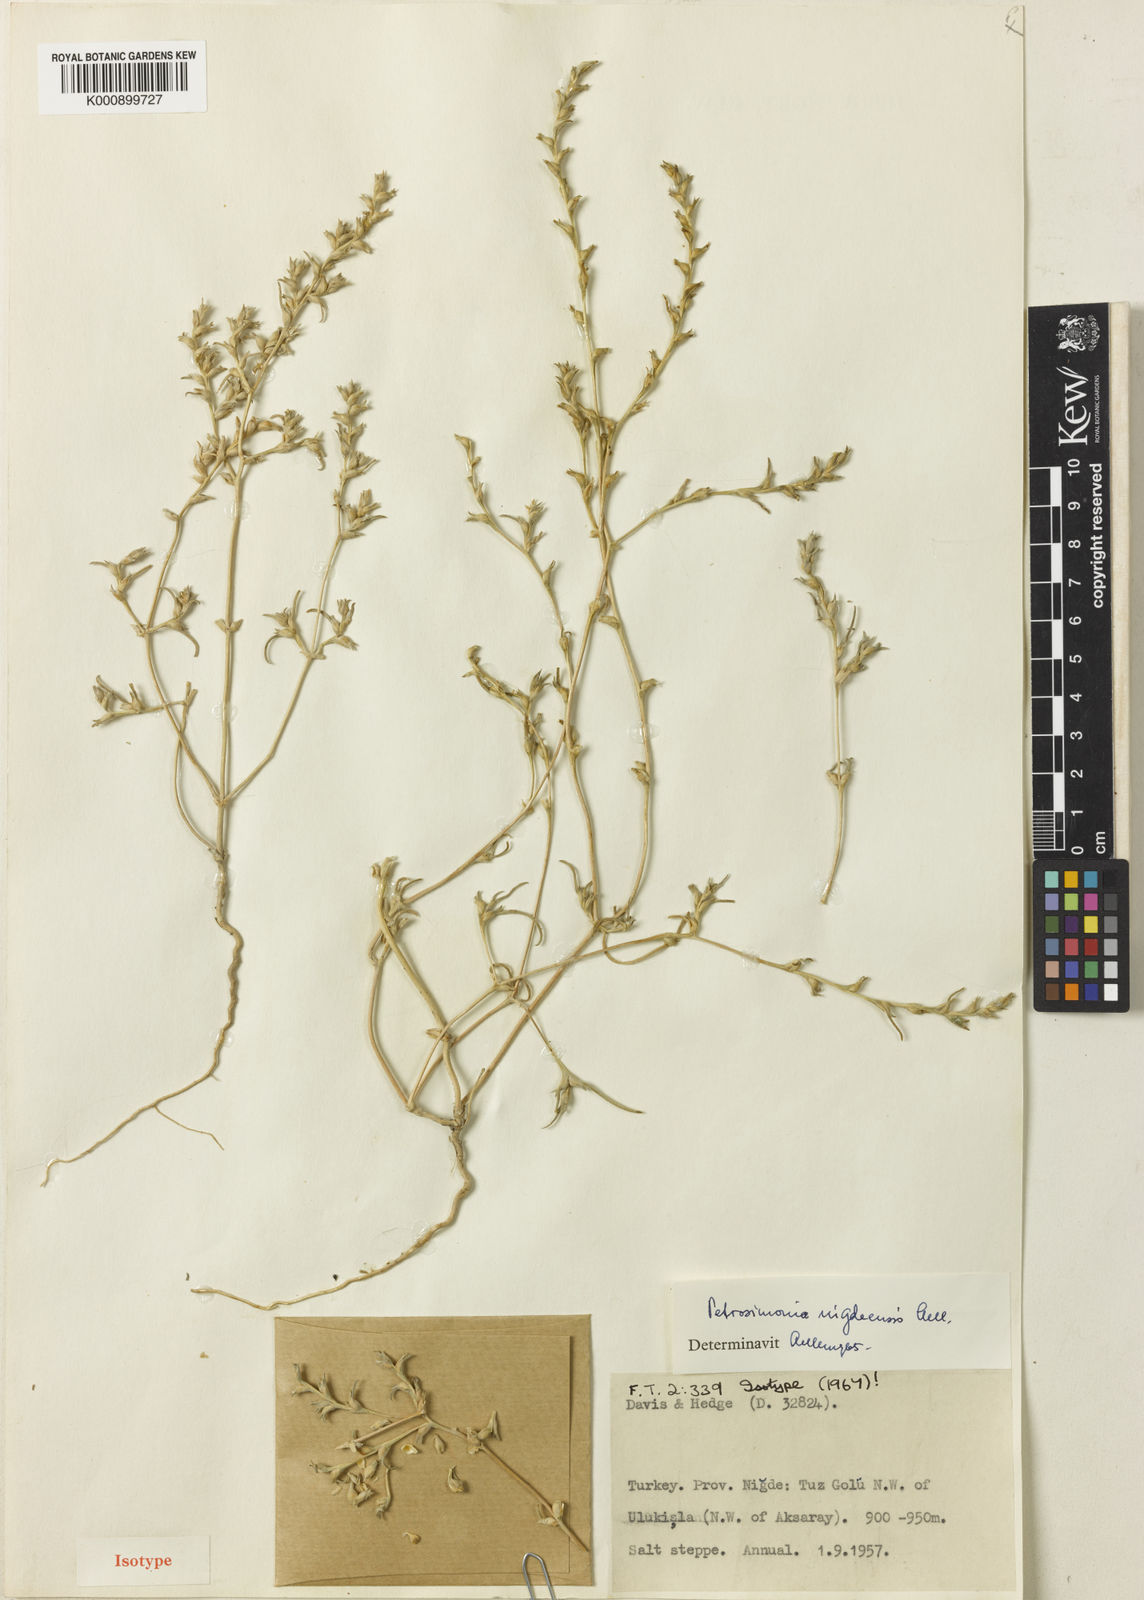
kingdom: Plantae
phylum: Tracheophyta
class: Magnoliopsida
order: Caryophyllales
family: Amaranthaceae
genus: Petrosimonia
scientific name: Petrosimonia triandra
